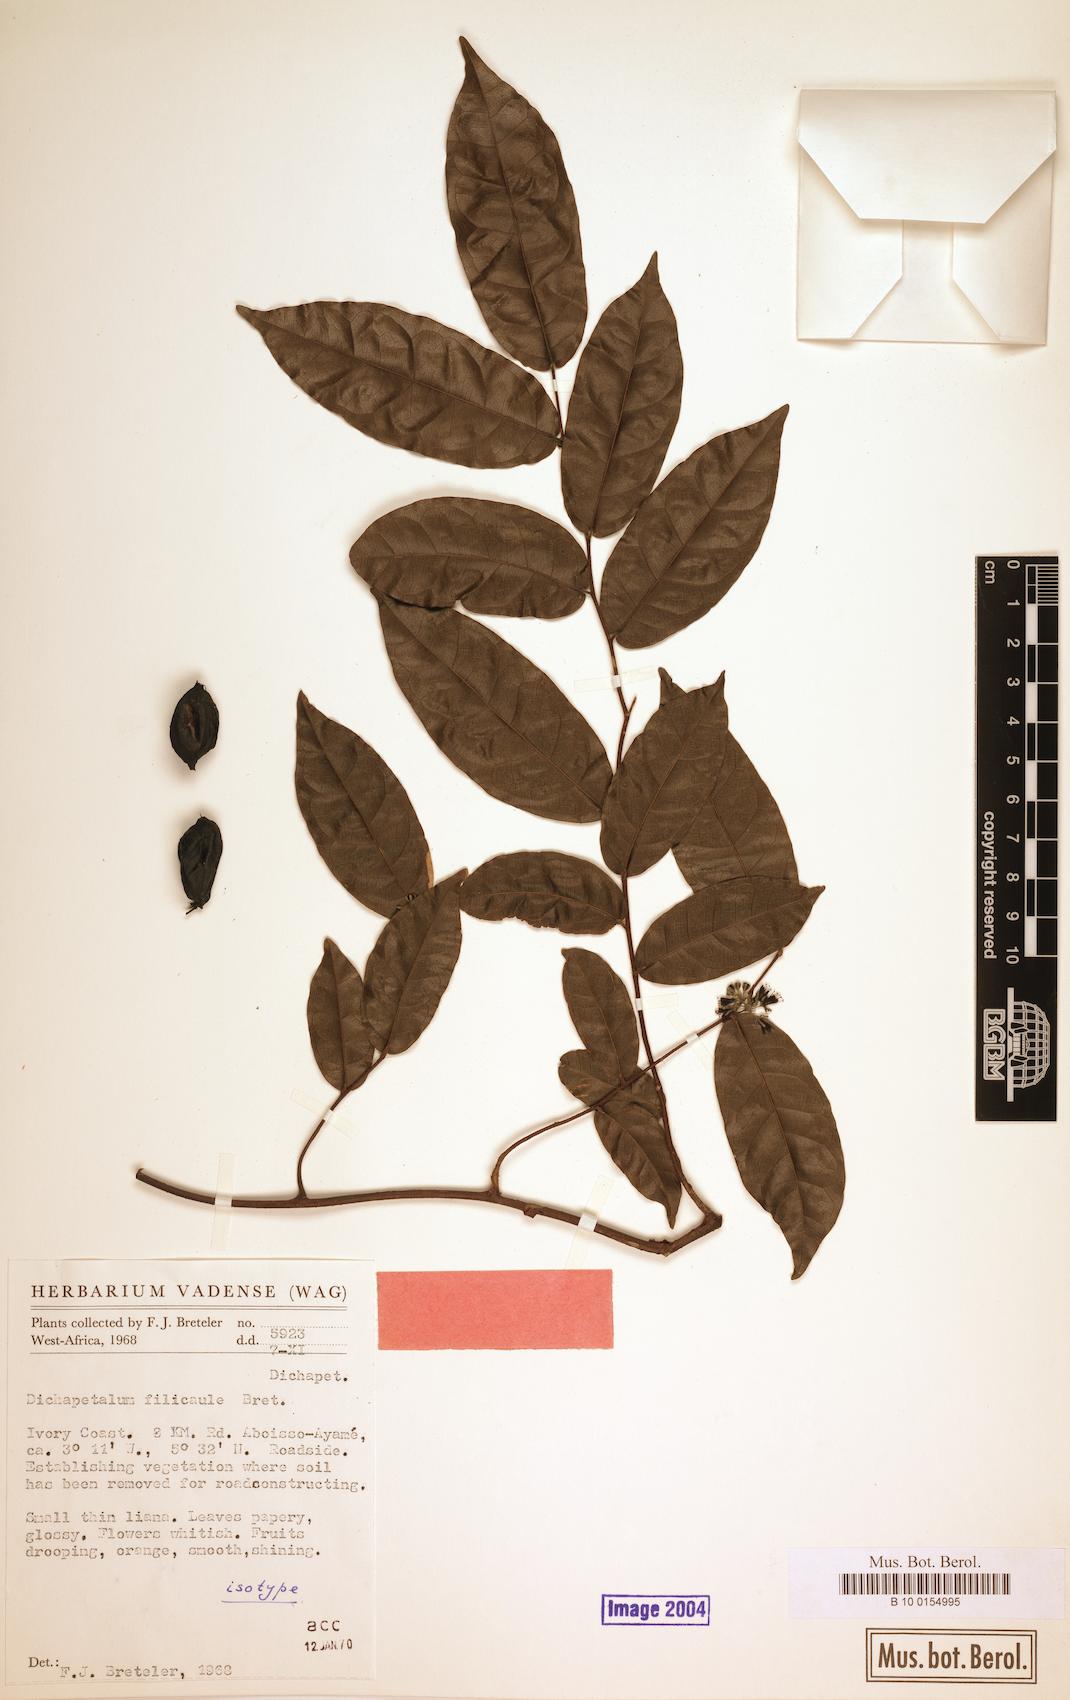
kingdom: Plantae
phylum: Tracheophyta
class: Magnoliopsida
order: Malpighiales
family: Dichapetalaceae
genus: Dichapetalum
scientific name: Dichapetalum filicaule
